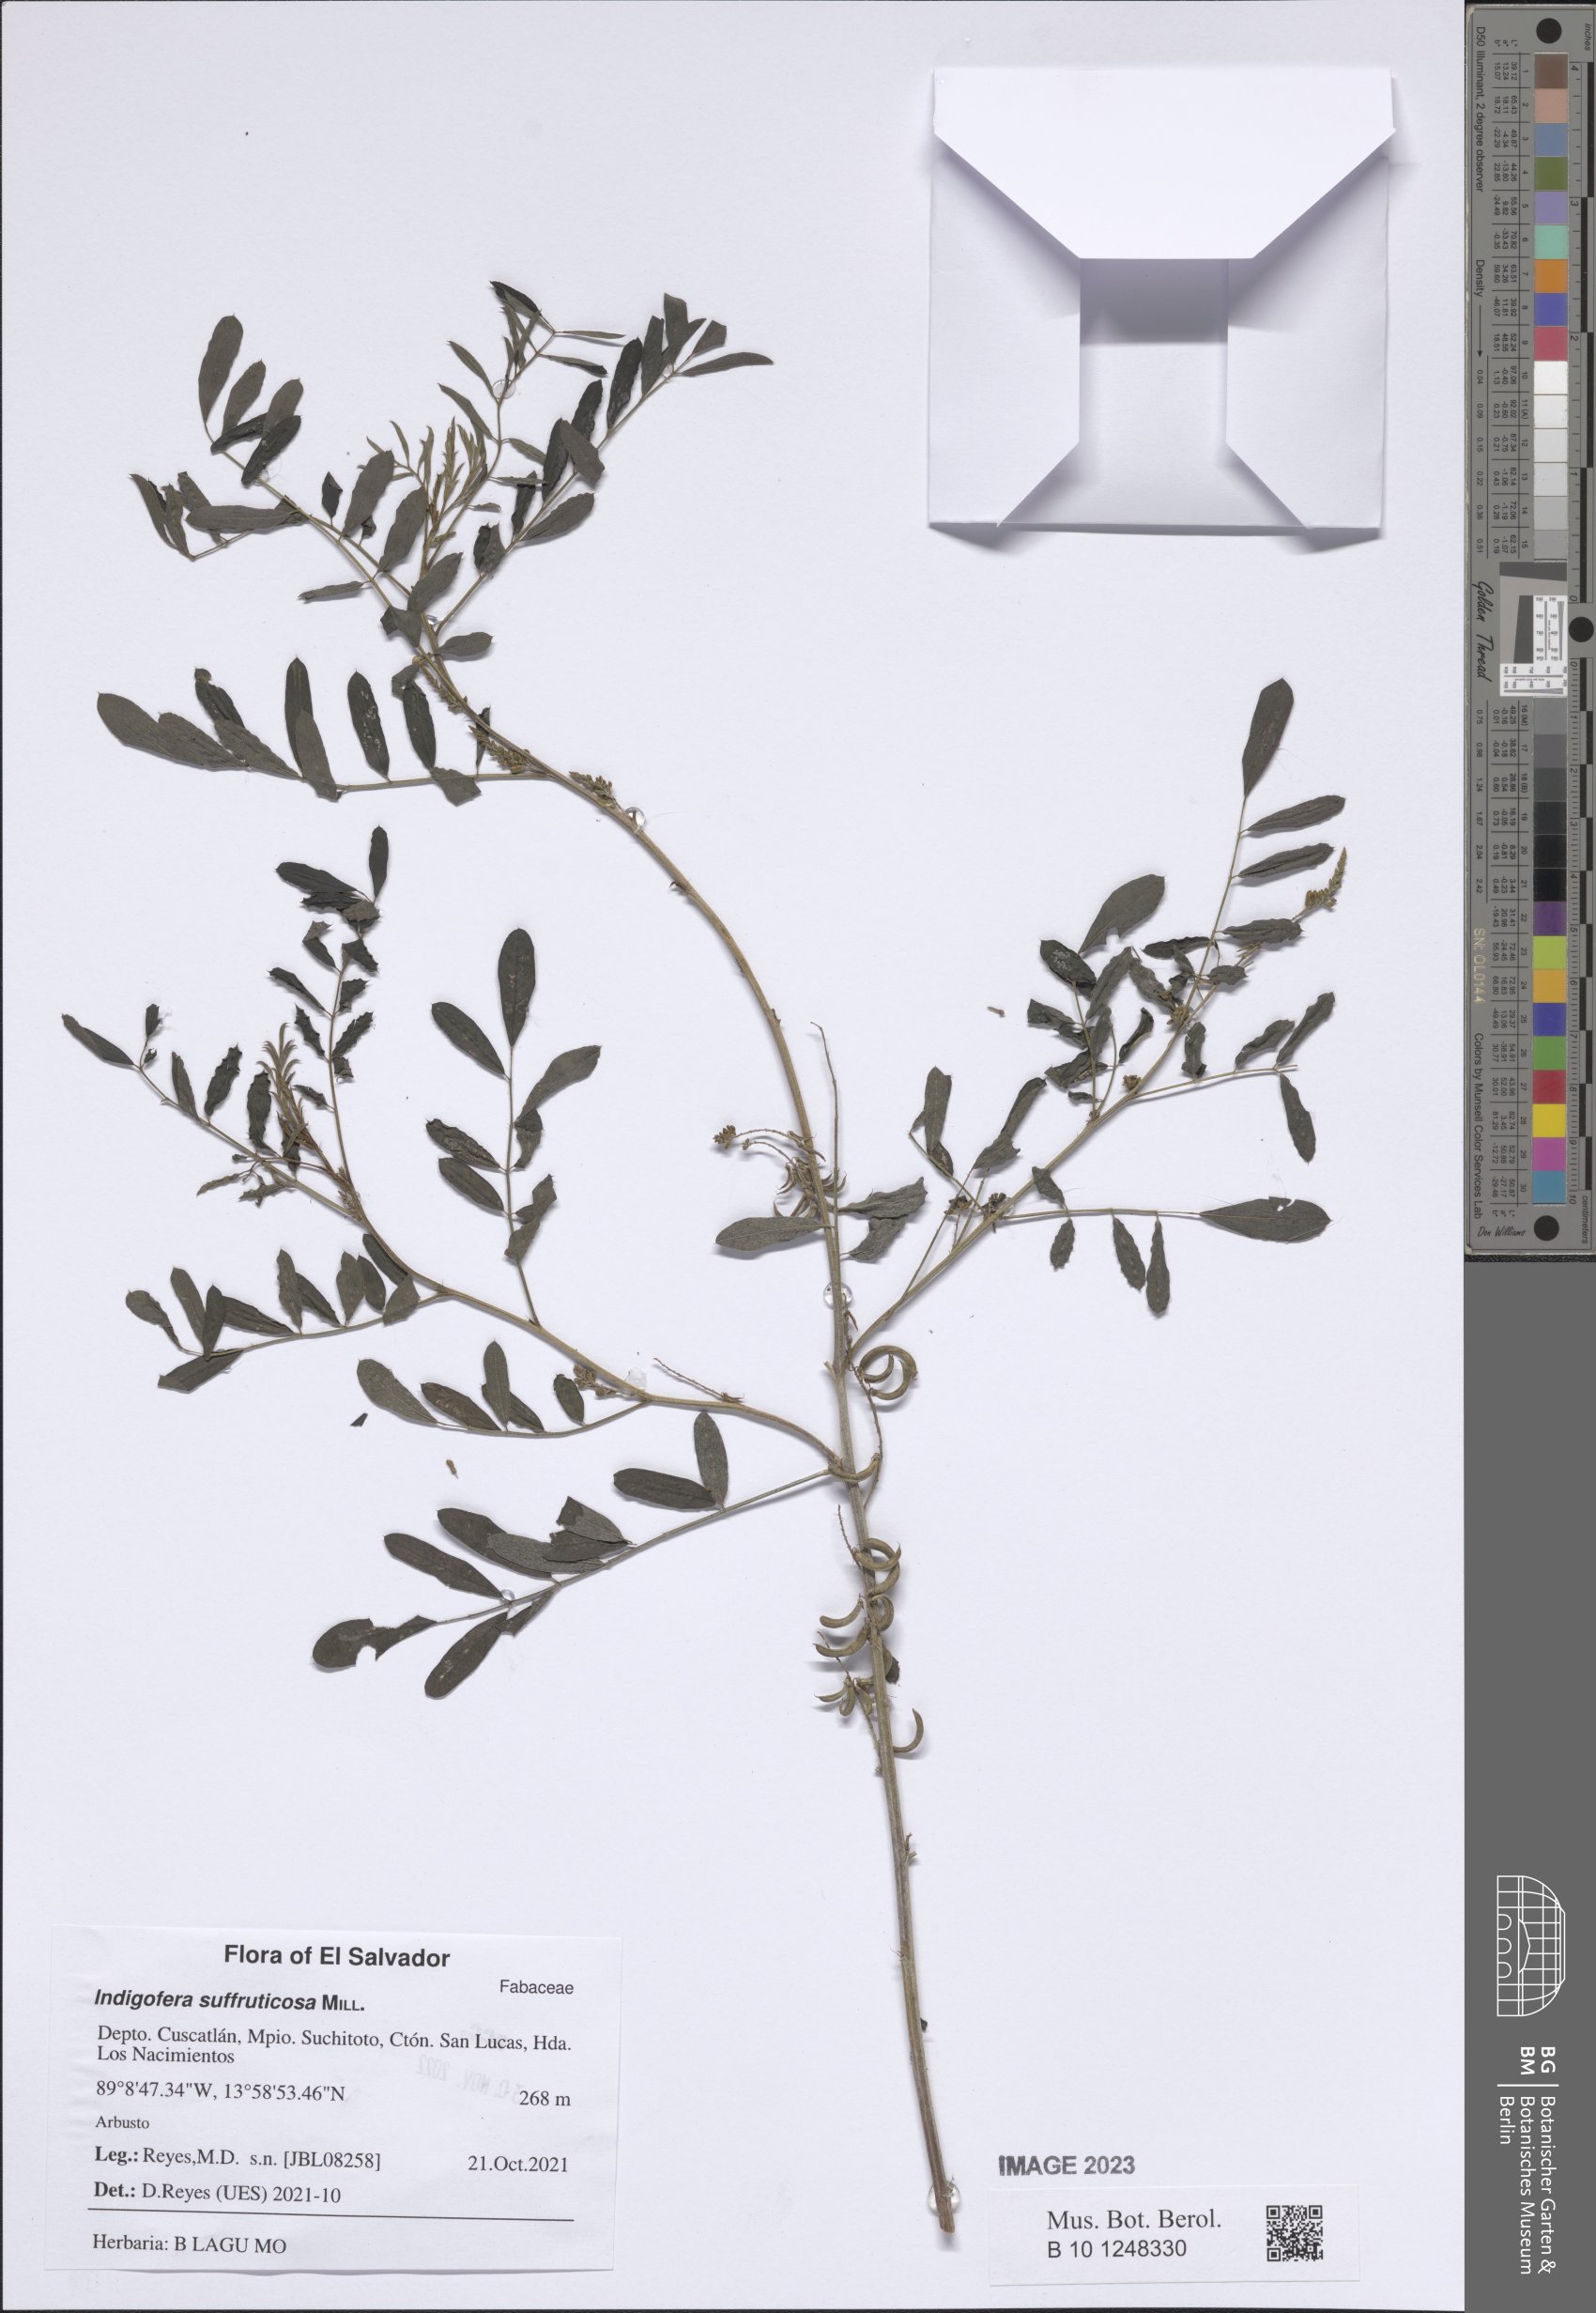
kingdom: Plantae
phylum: Tracheophyta
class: Magnoliopsida
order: Fabales
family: Fabaceae
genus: Indigofera
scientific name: Indigofera suffruticosa
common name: Anil de pasto
